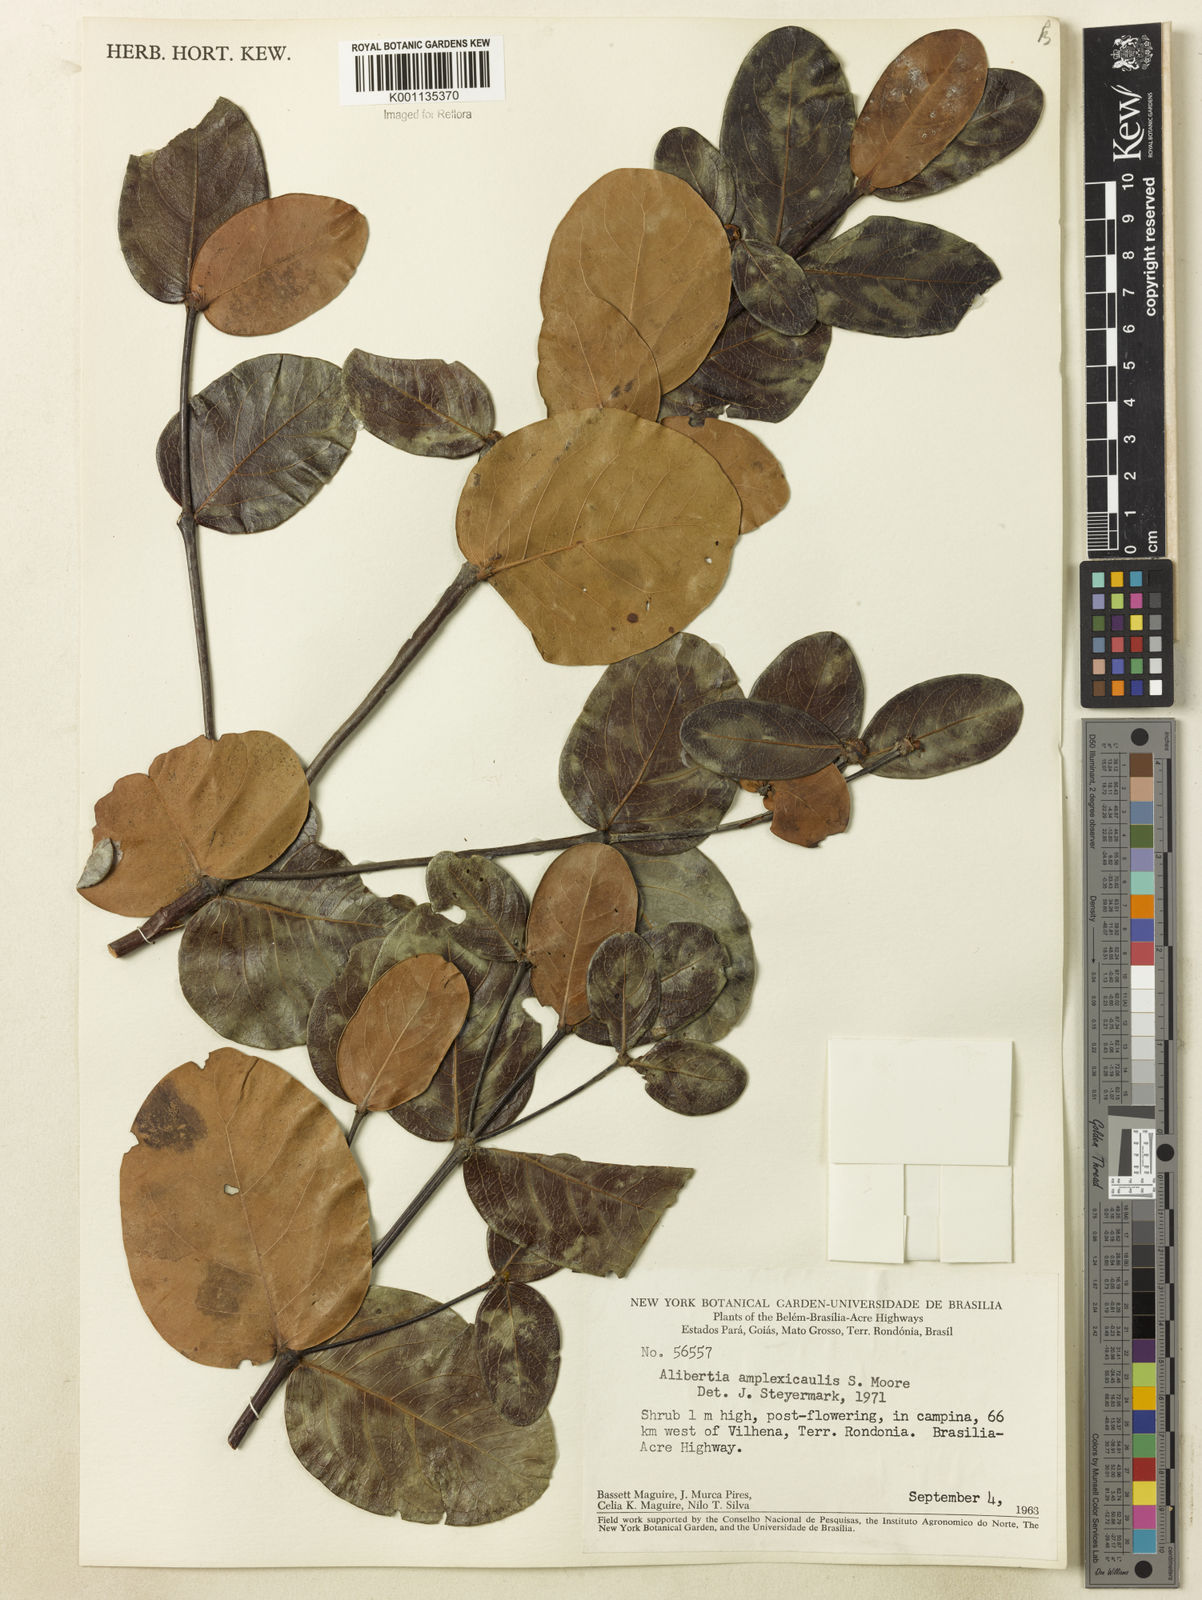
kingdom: Plantae
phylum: Tracheophyta
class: Magnoliopsida
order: Gentianales
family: Rubiaceae
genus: Cordiera
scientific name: Cordiera humilis
